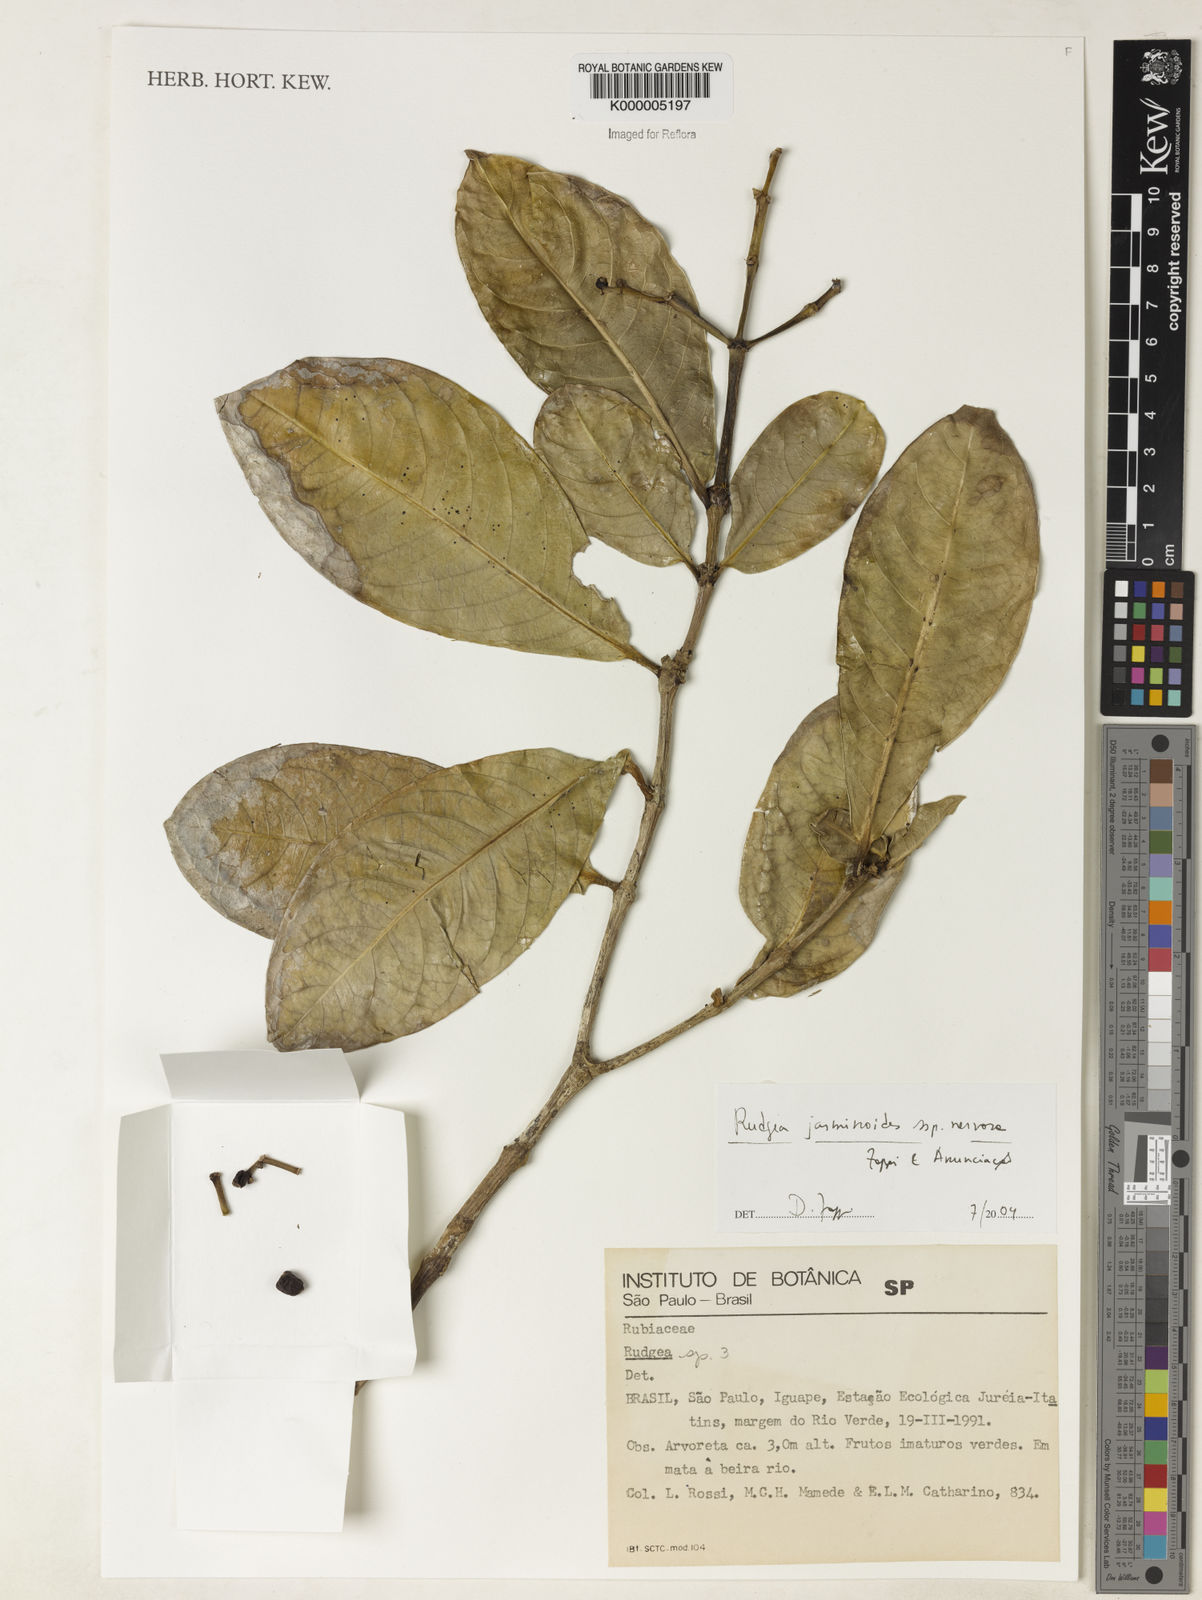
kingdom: Plantae
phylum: Tracheophyta
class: Magnoliopsida
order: Gentianales
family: Rubiaceae
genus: Rudgea
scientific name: Rudgea jasminoides
